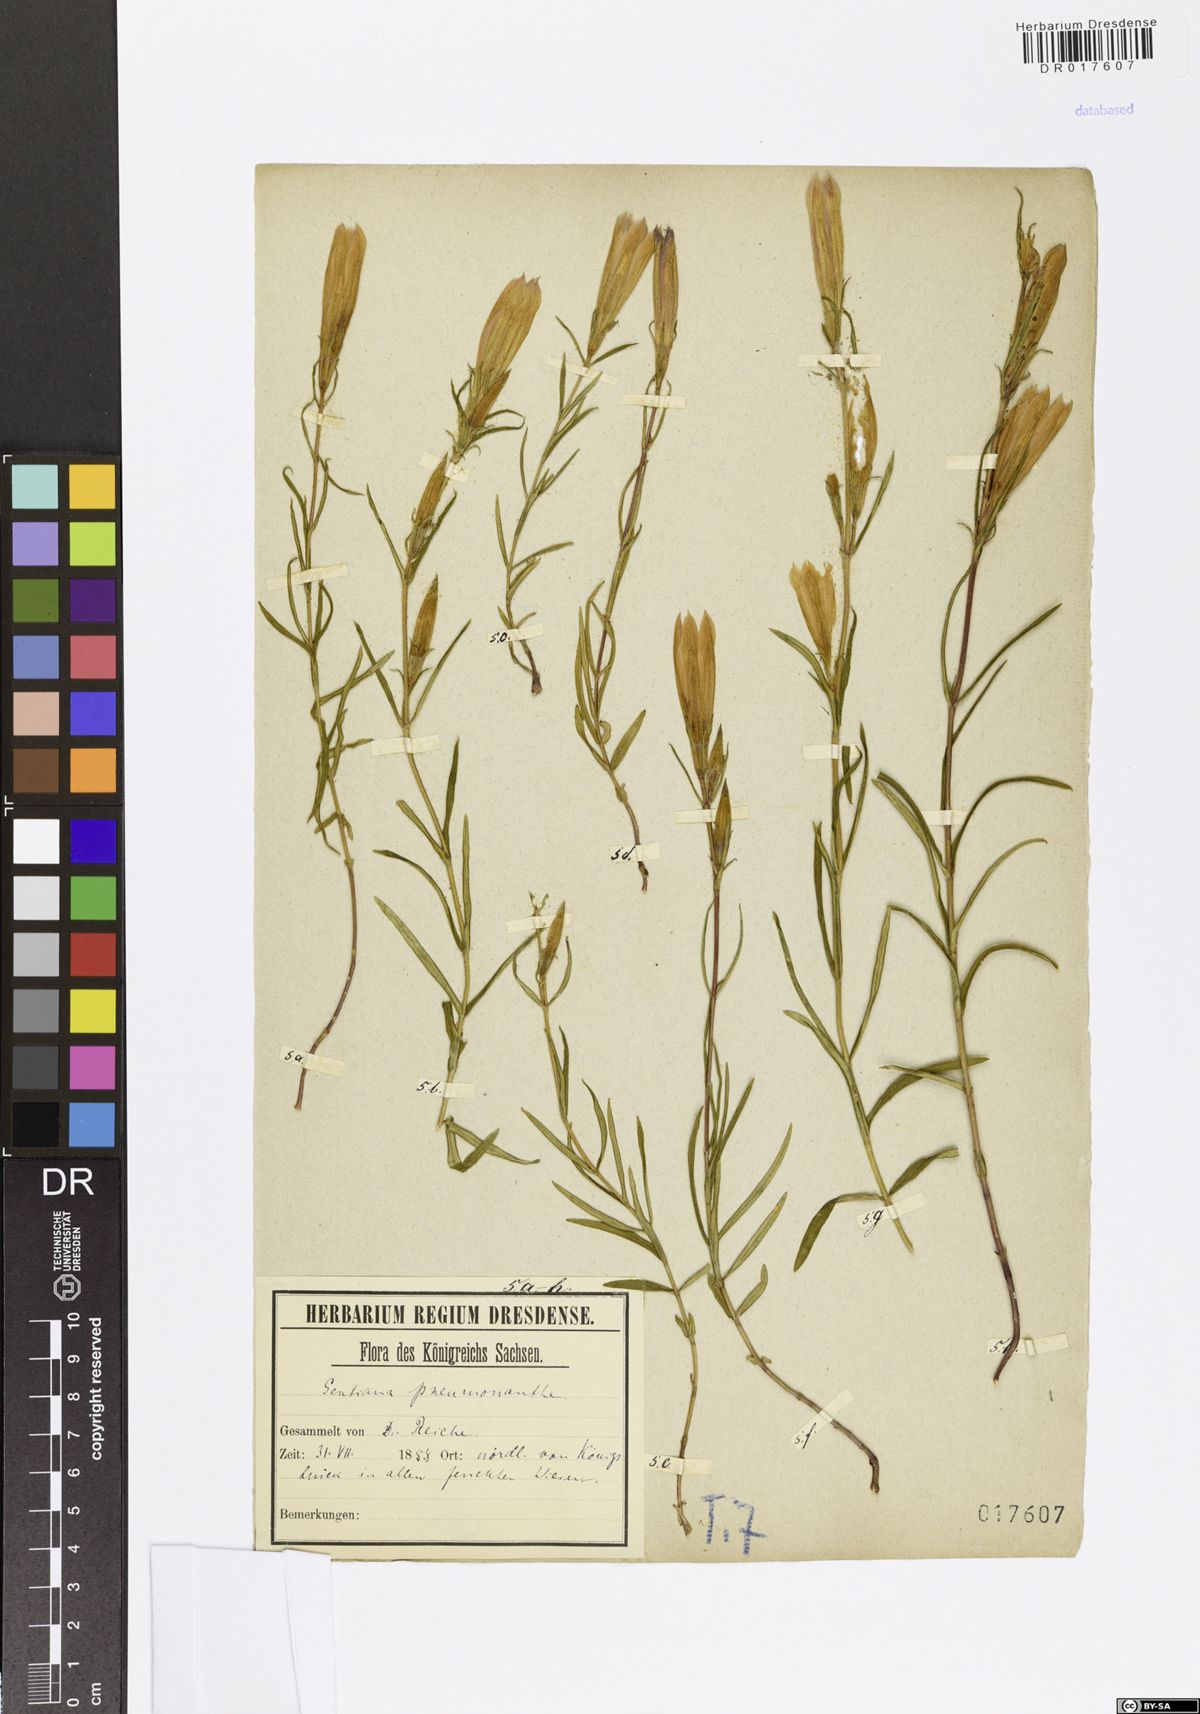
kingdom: Plantae
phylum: Tracheophyta
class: Magnoliopsida
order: Gentianales
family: Gentianaceae
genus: Gentiana
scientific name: Gentiana pneumonanthe
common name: Marsh gentian
